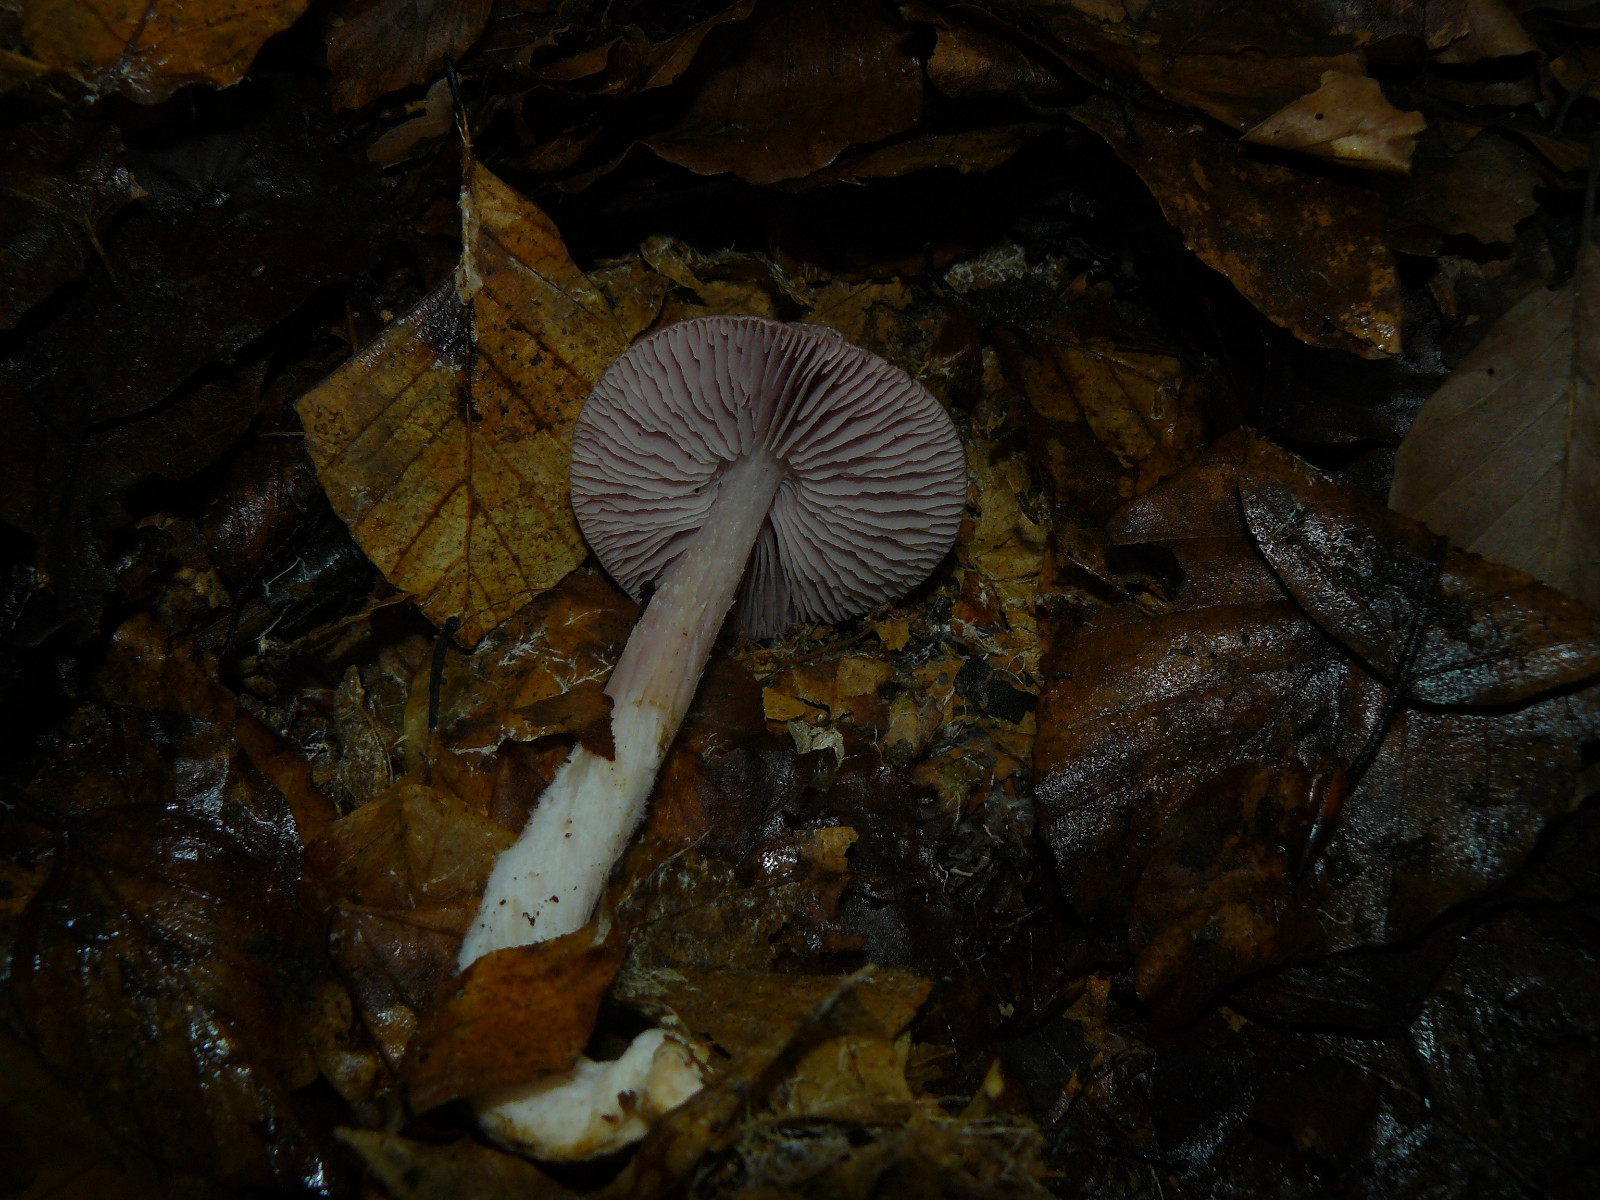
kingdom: Fungi
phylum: Basidiomycota
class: Agaricomycetes
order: Agaricales
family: Mycenaceae
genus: Mycena
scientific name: Mycena rosea
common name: rosa huesvamp
